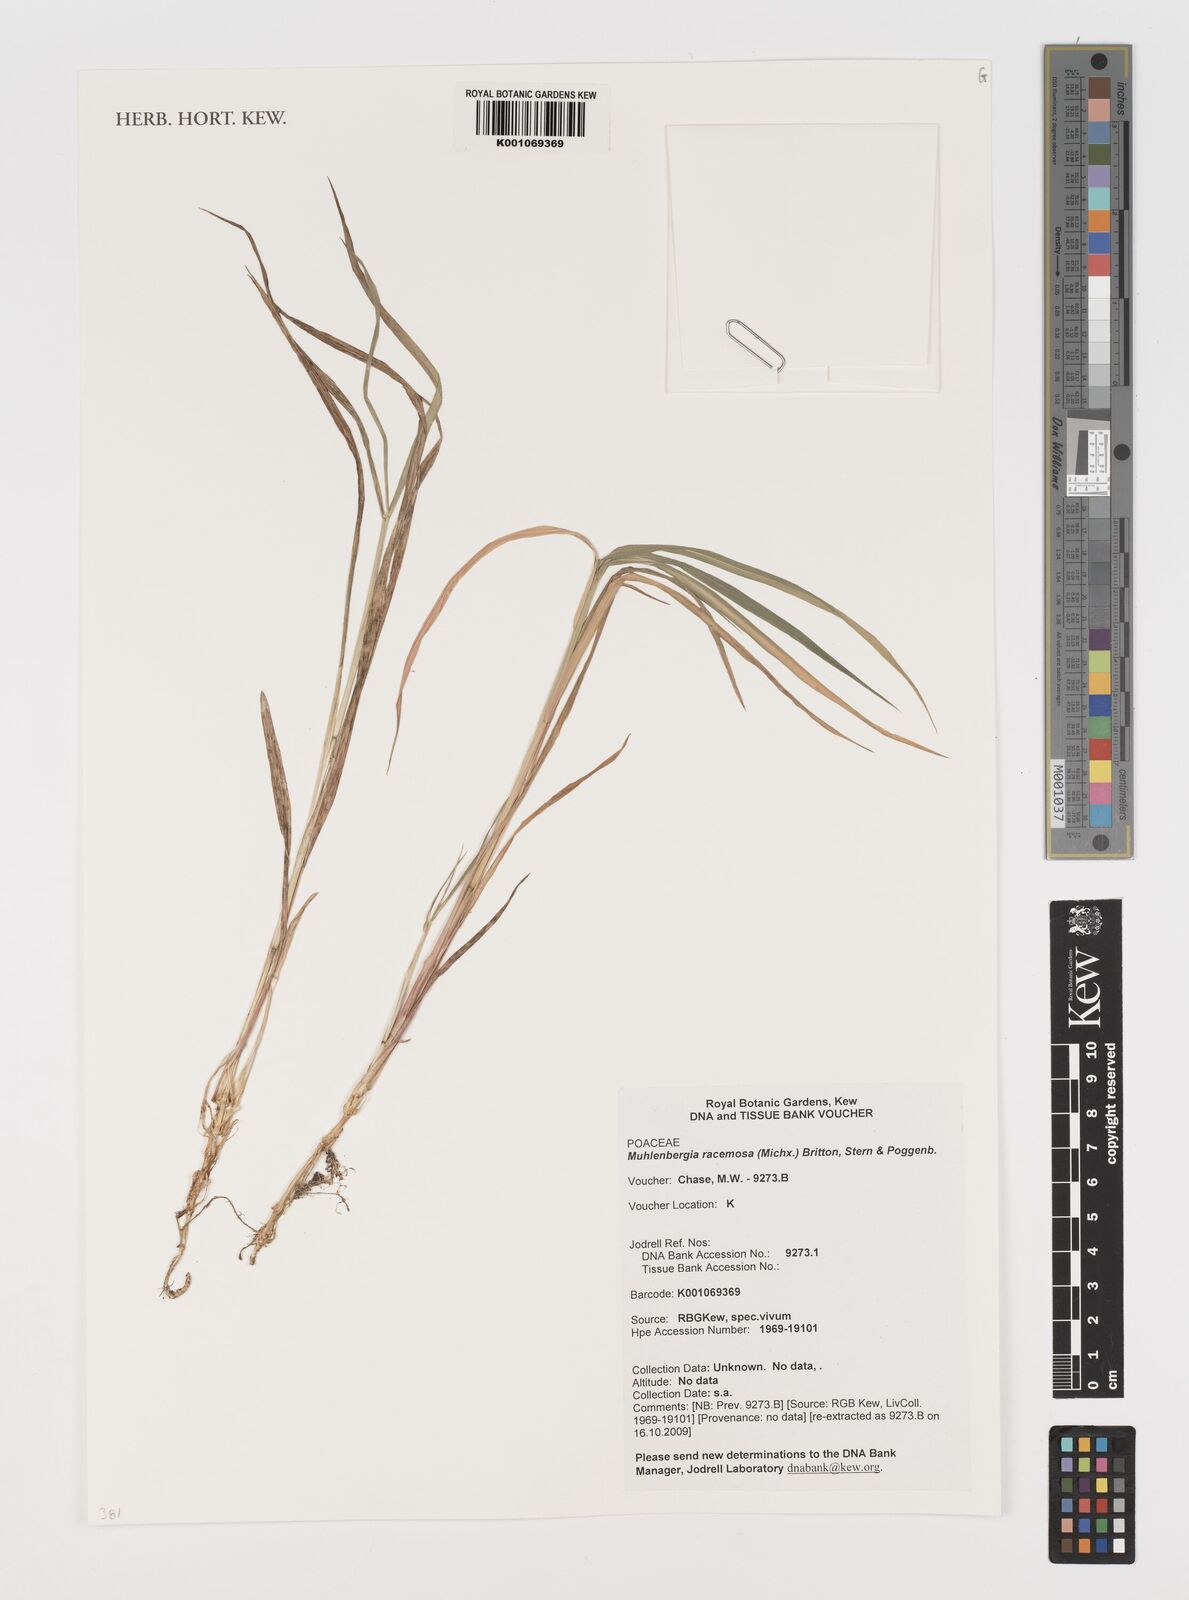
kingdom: Plantae
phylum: Tracheophyta
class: Liliopsida
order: Poales
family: Poaceae
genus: Muhlenbergia
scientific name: Muhlenbergia racemosa
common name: Green muhly
